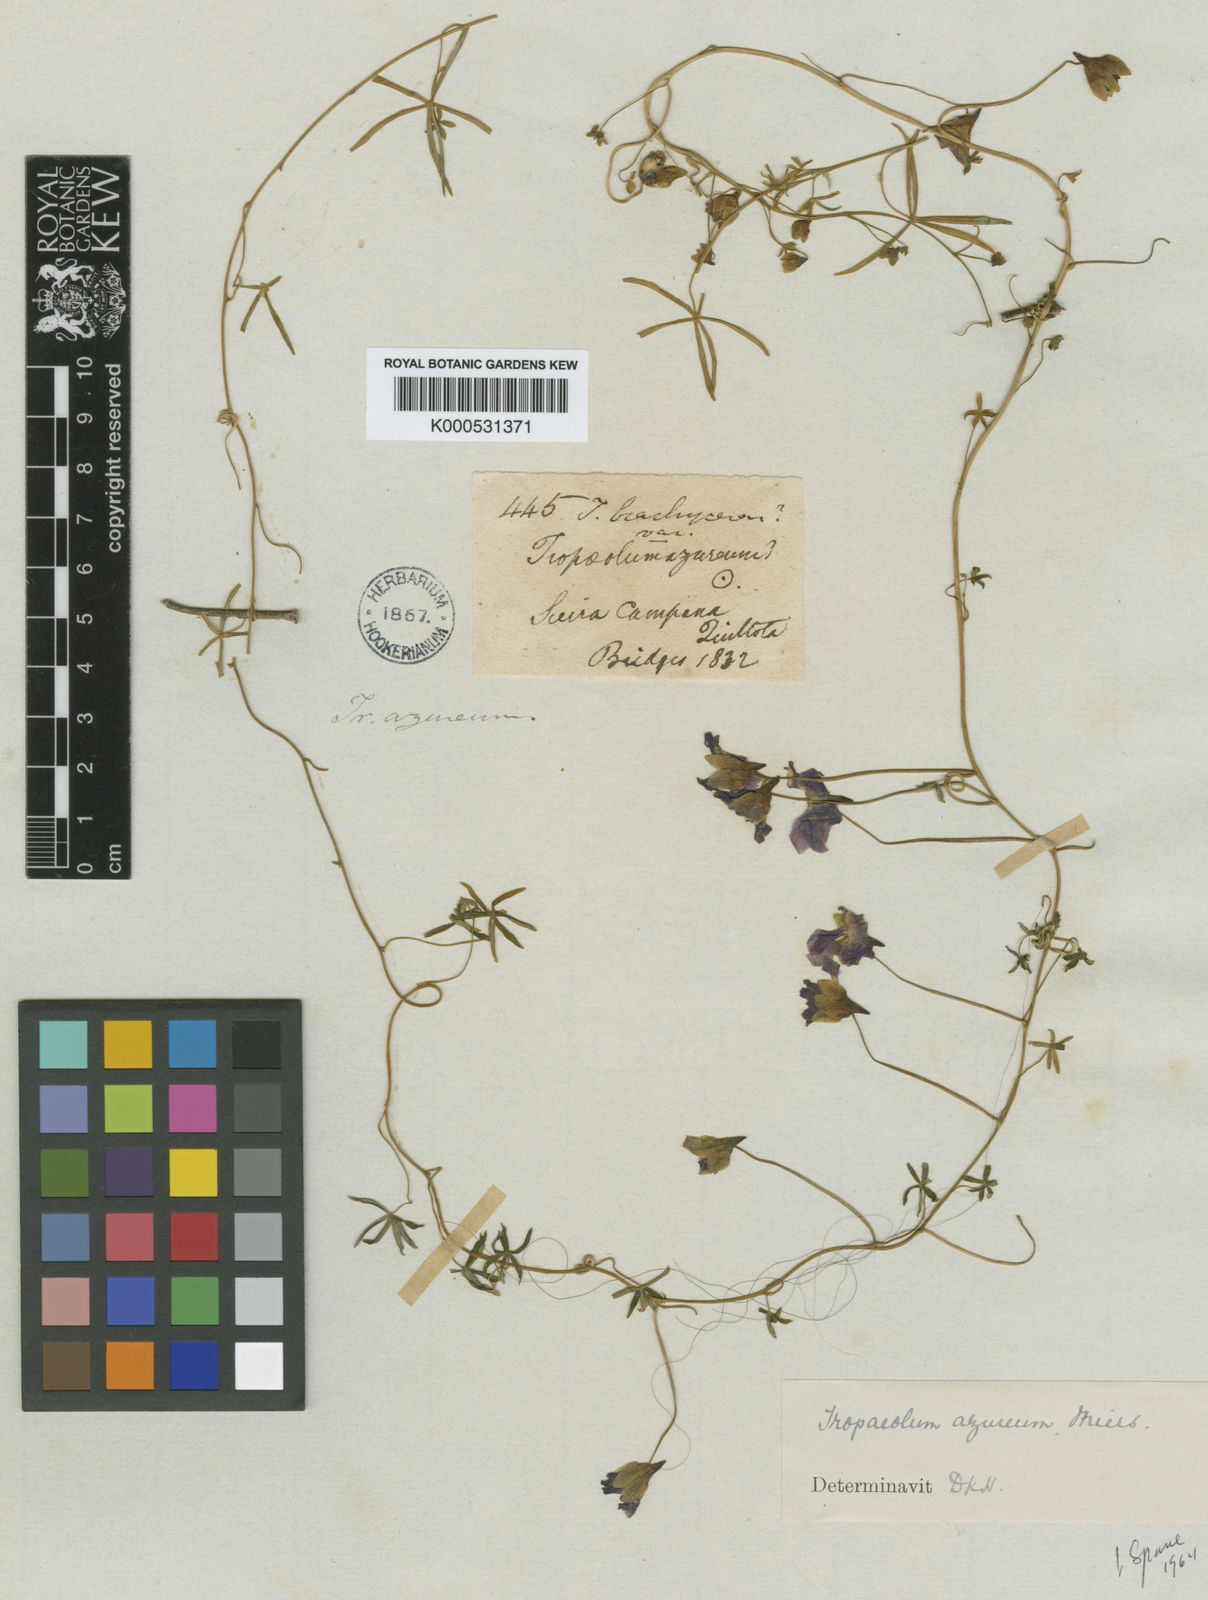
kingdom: Plantae
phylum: Tracheophyta
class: Magnoliopsida
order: Brassicales
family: Tropaeolaceae
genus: Tropaeolum
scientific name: Tropaeolum
